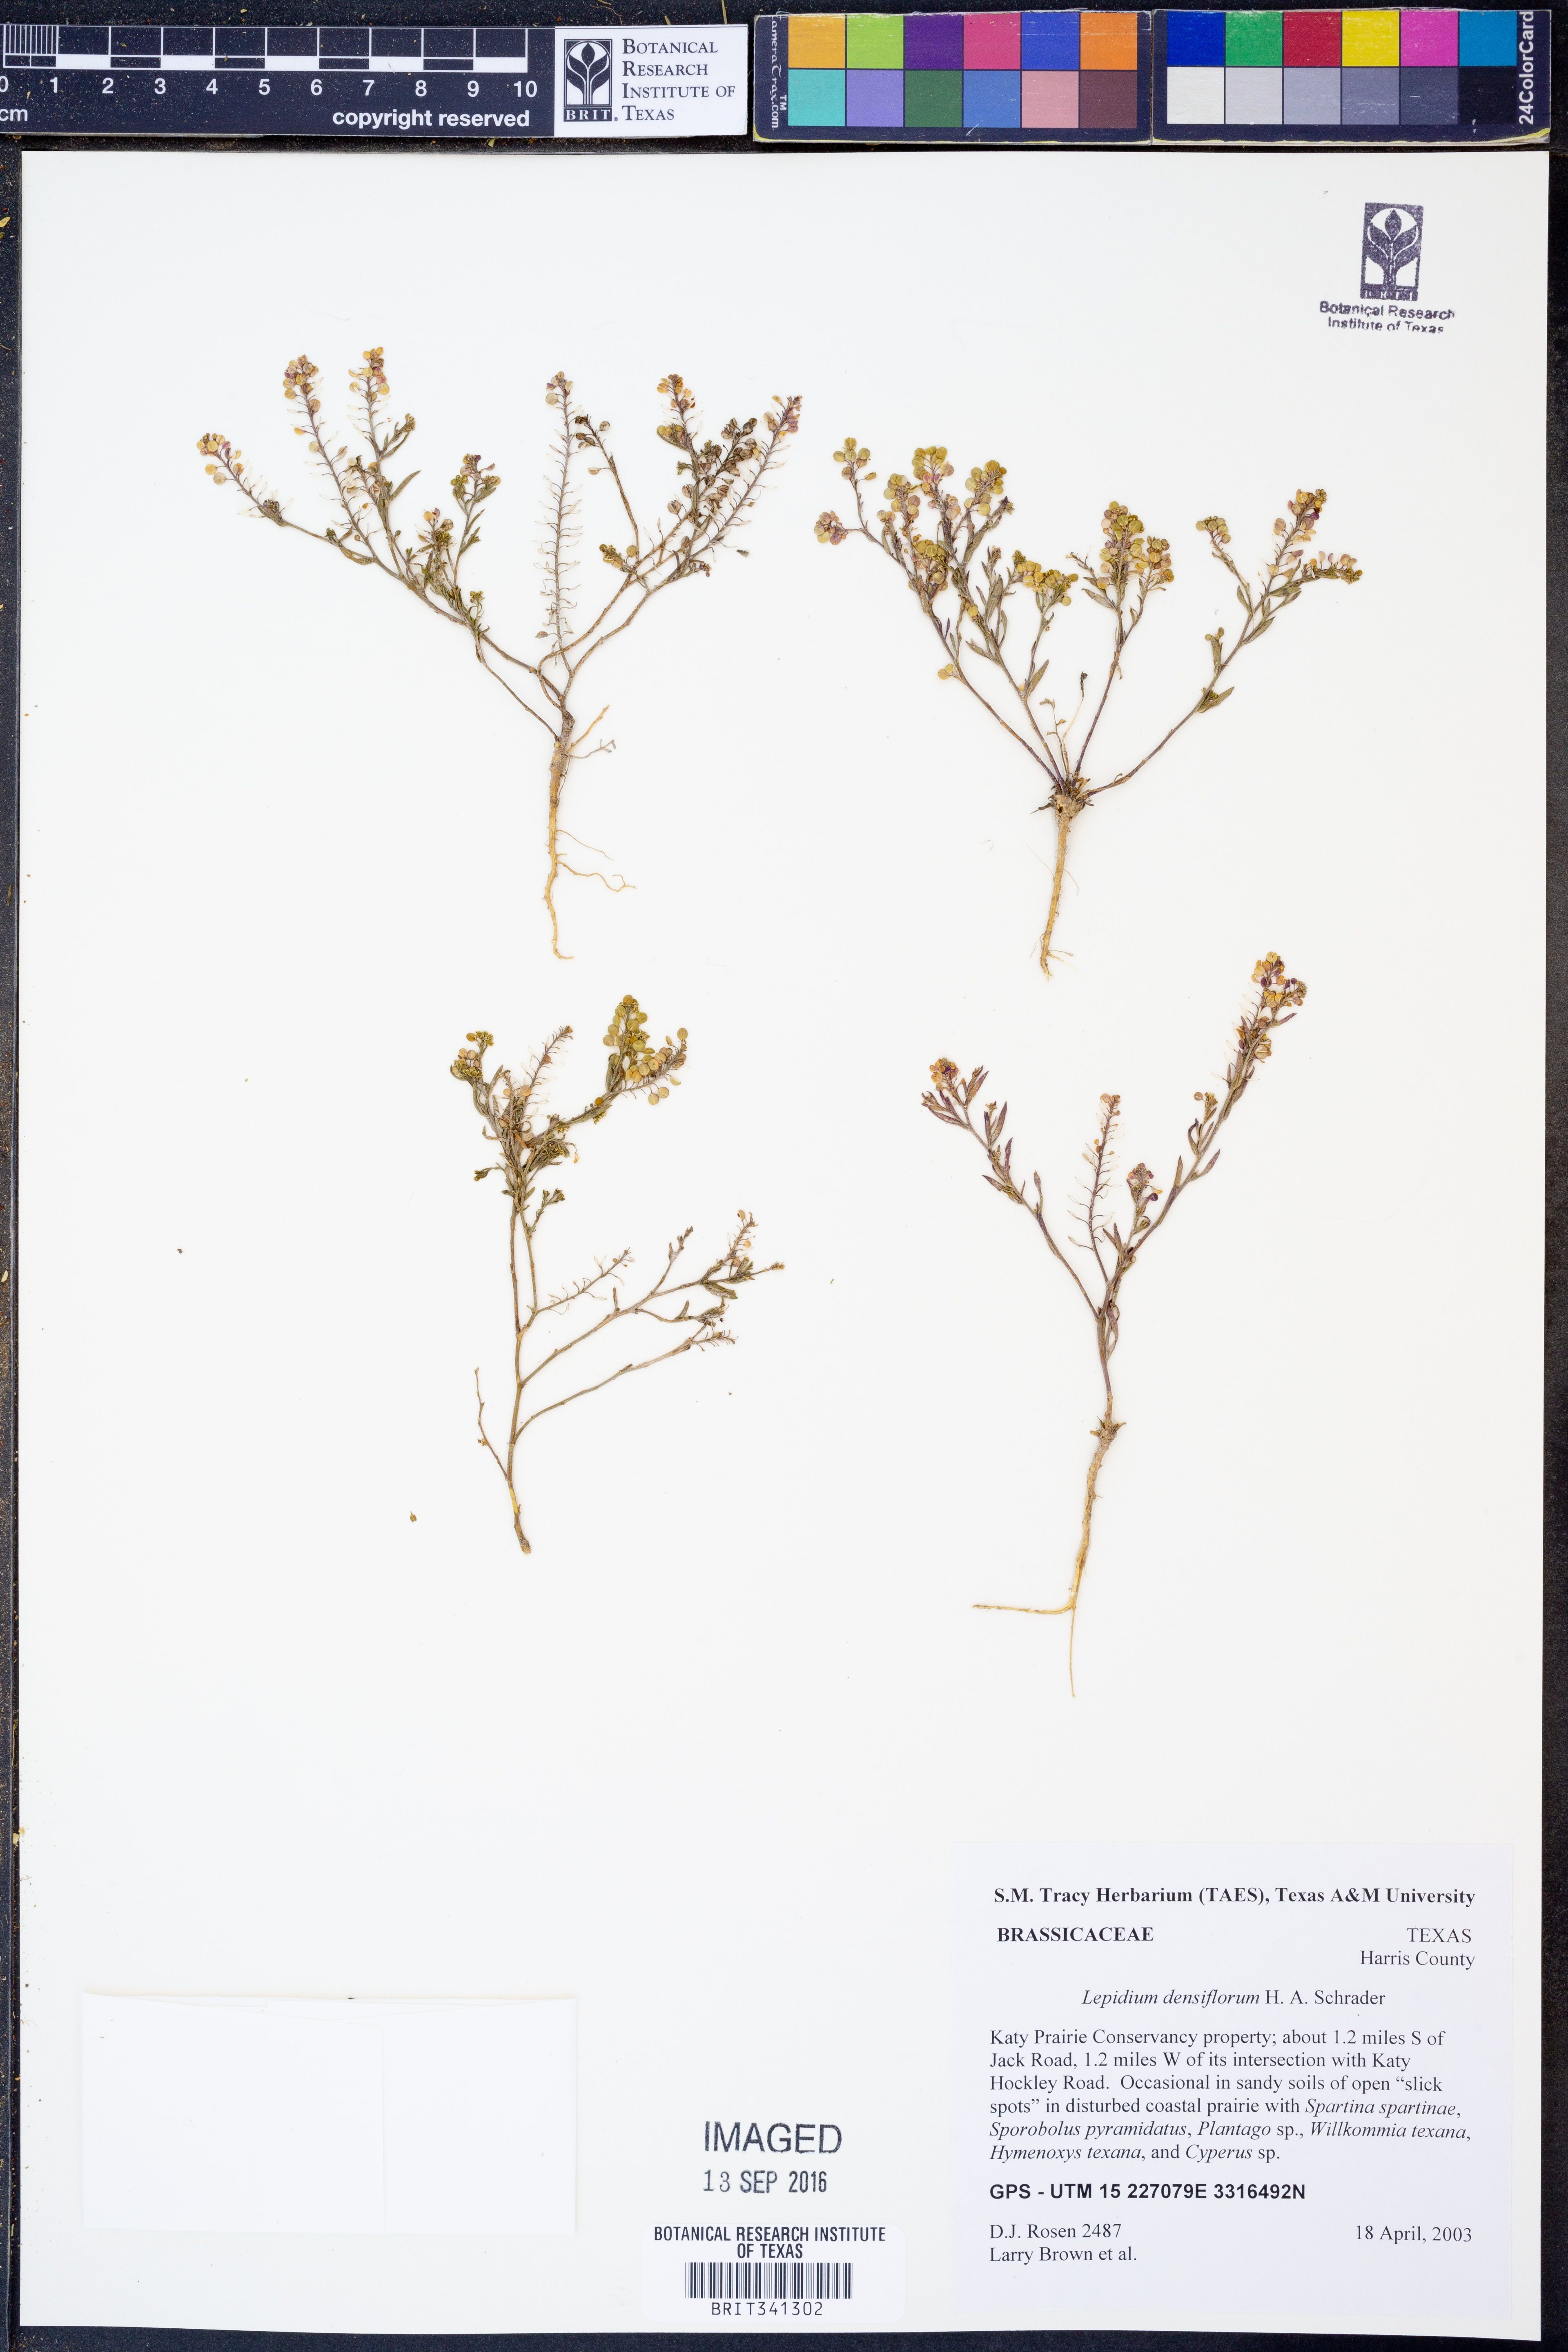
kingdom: Plantae
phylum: Tracheophyta
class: Magnoliopsida
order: Brassicales
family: Brassicaceae
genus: Lepidium
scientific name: Lepidium densiflorum
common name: Miner's pepperwort
